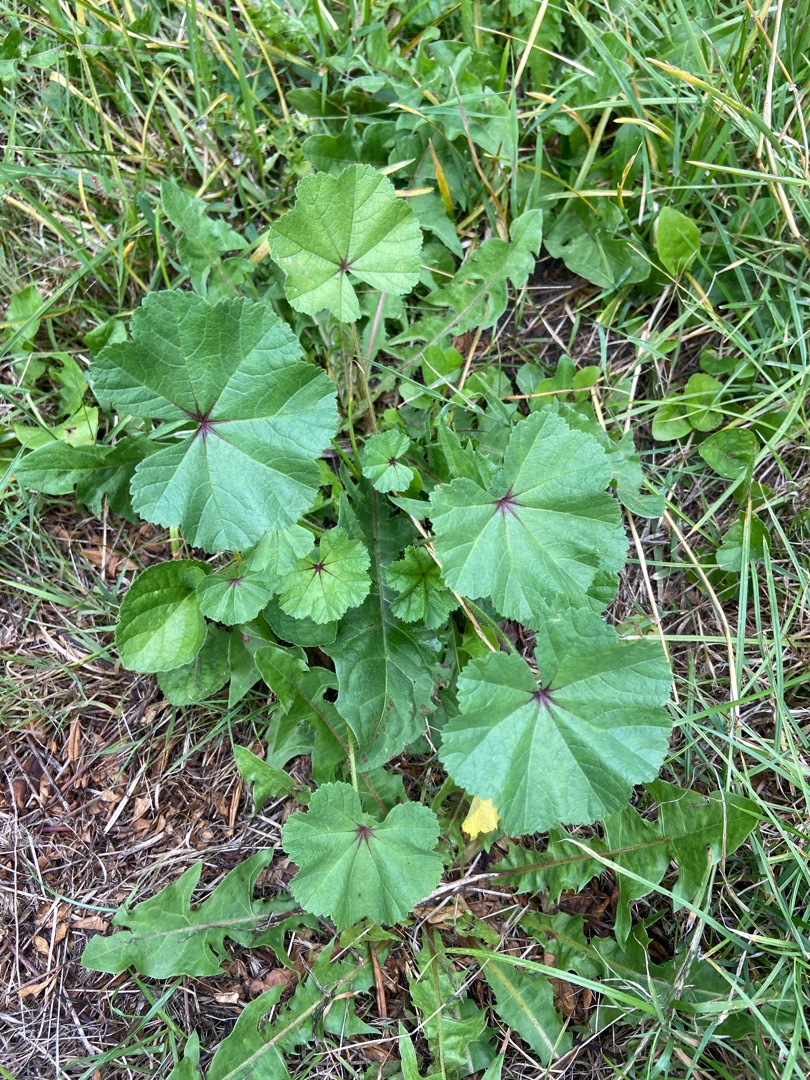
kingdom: Plantae
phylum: Tracheophyta
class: Magnoliopsida
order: Malvales
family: Malvaceae
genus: Malva
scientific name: Malva
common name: Katostslægten
